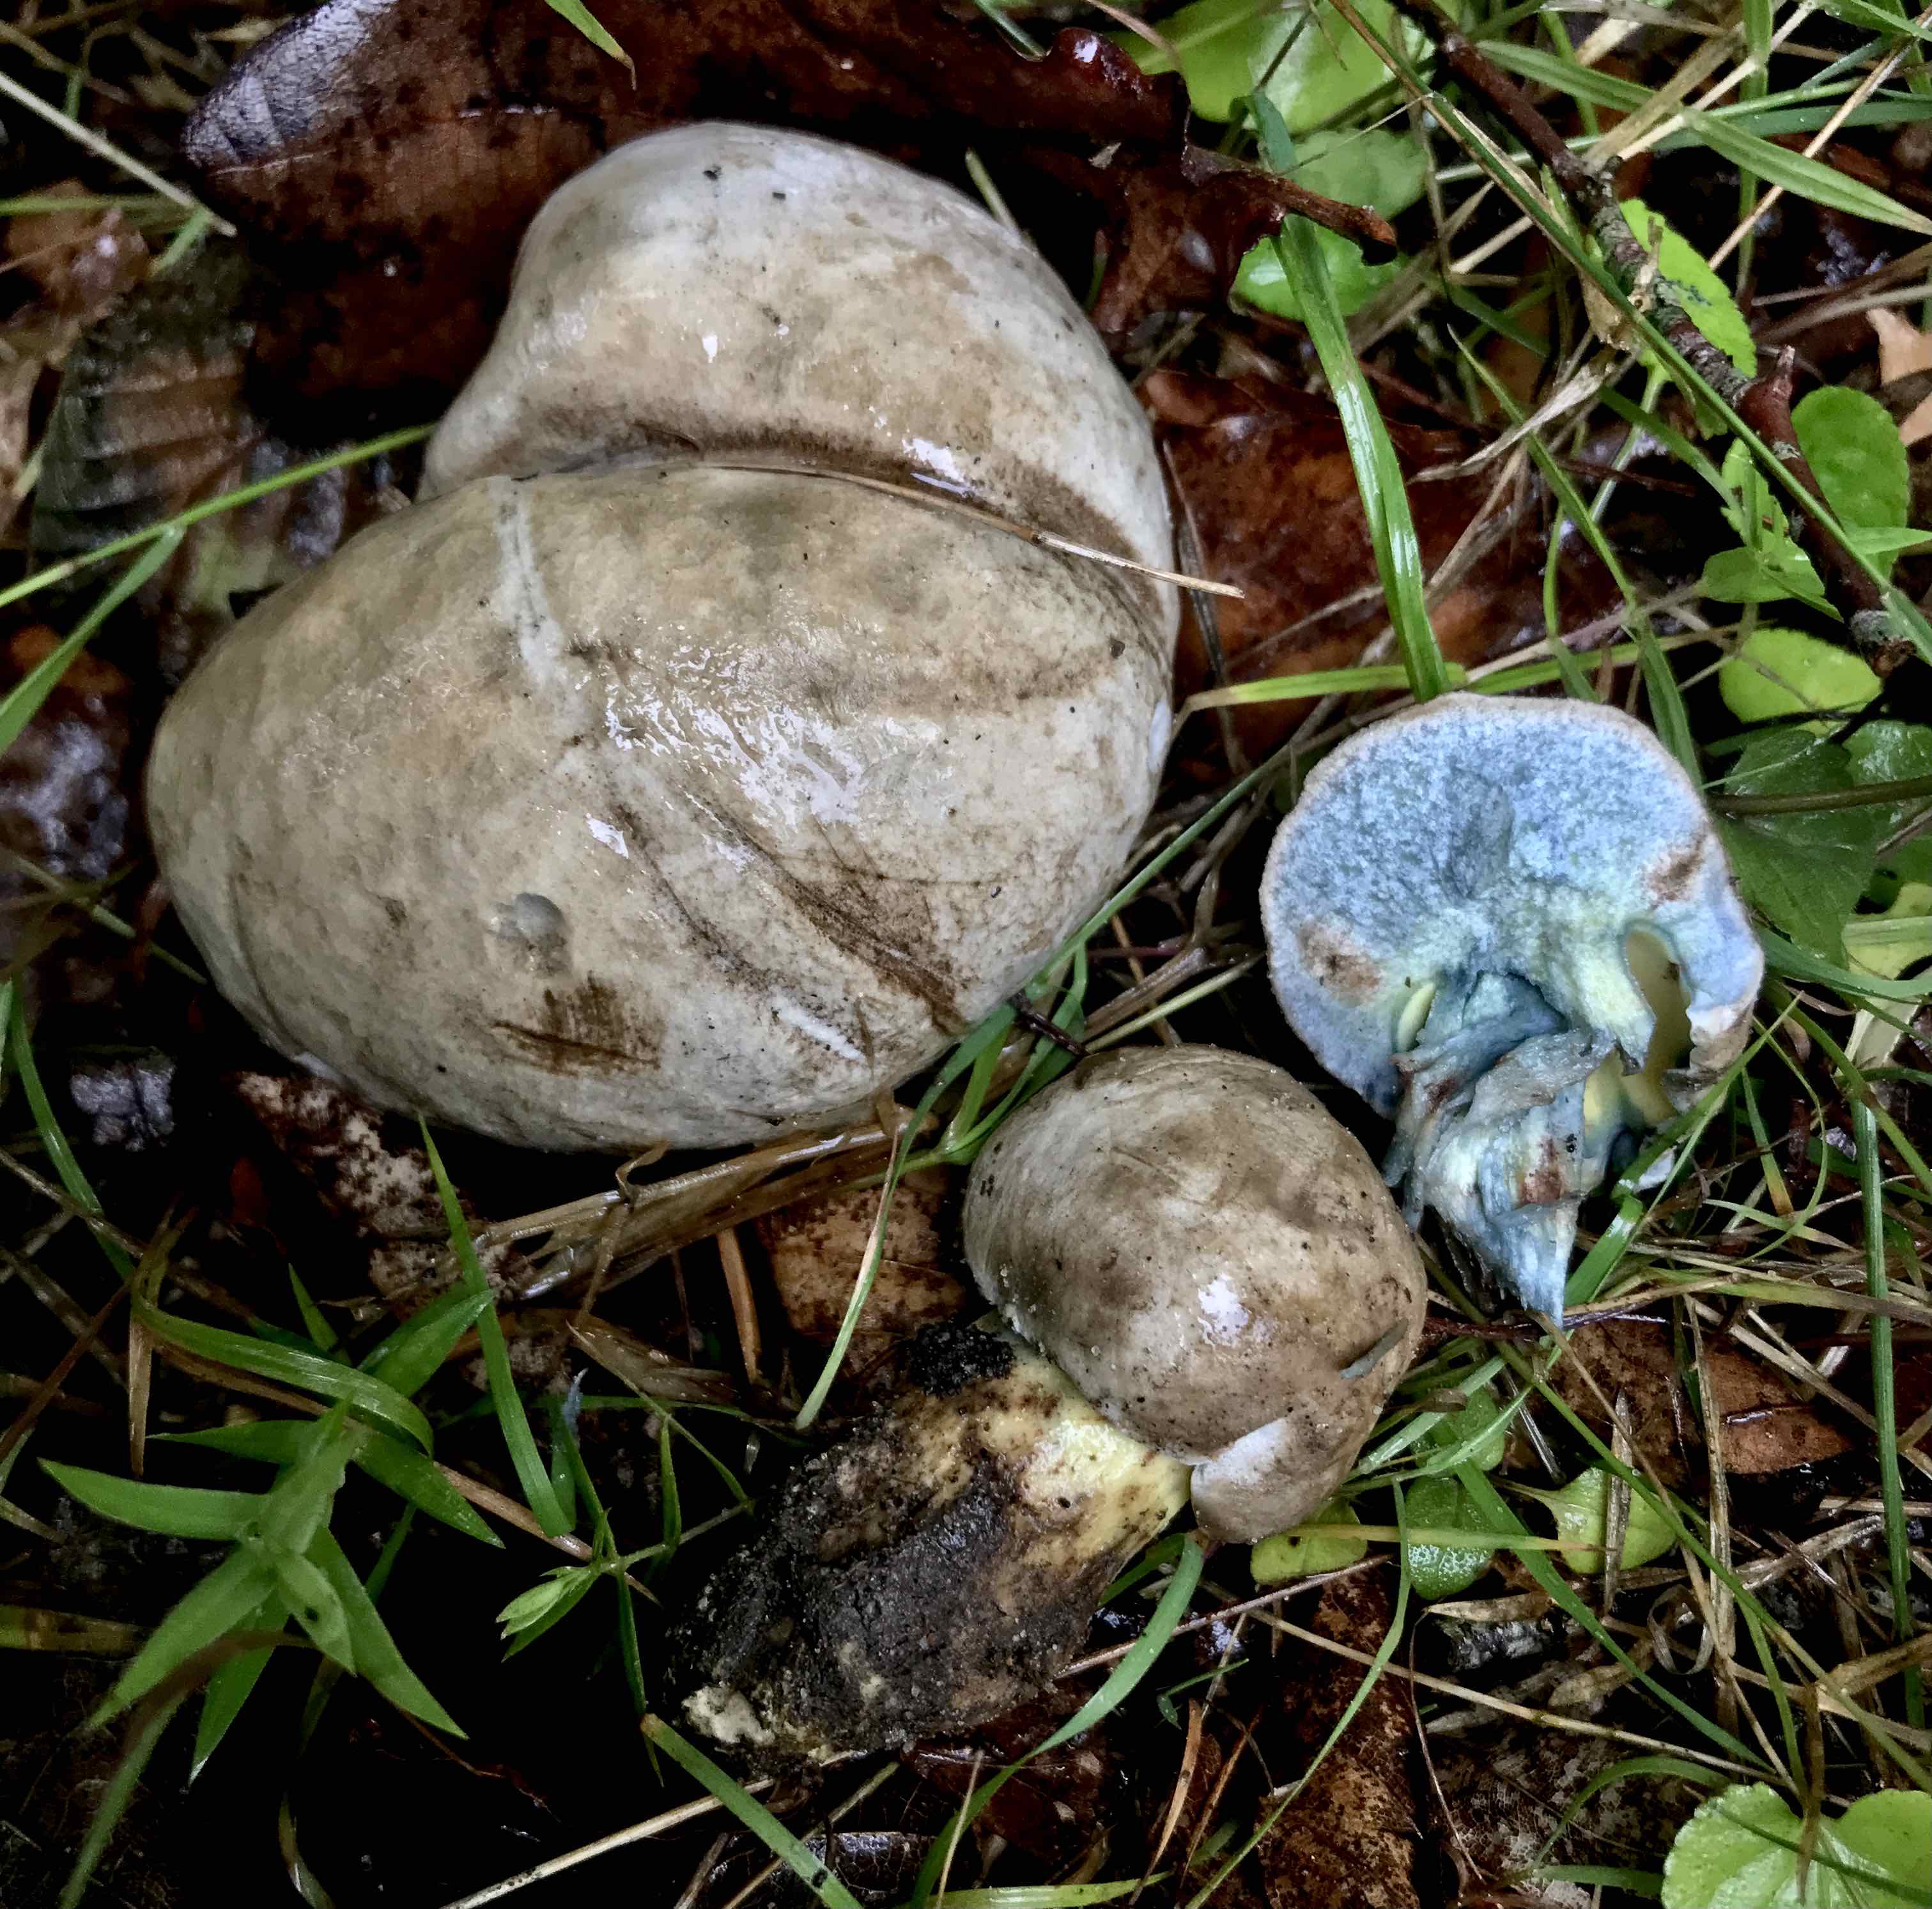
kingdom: Fungi
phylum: Basidiomycota
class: Agaricomycetes
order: Boletales
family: Boletaceae
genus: Caloboletus
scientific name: Caloboletus radicans
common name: rod-rørhat
